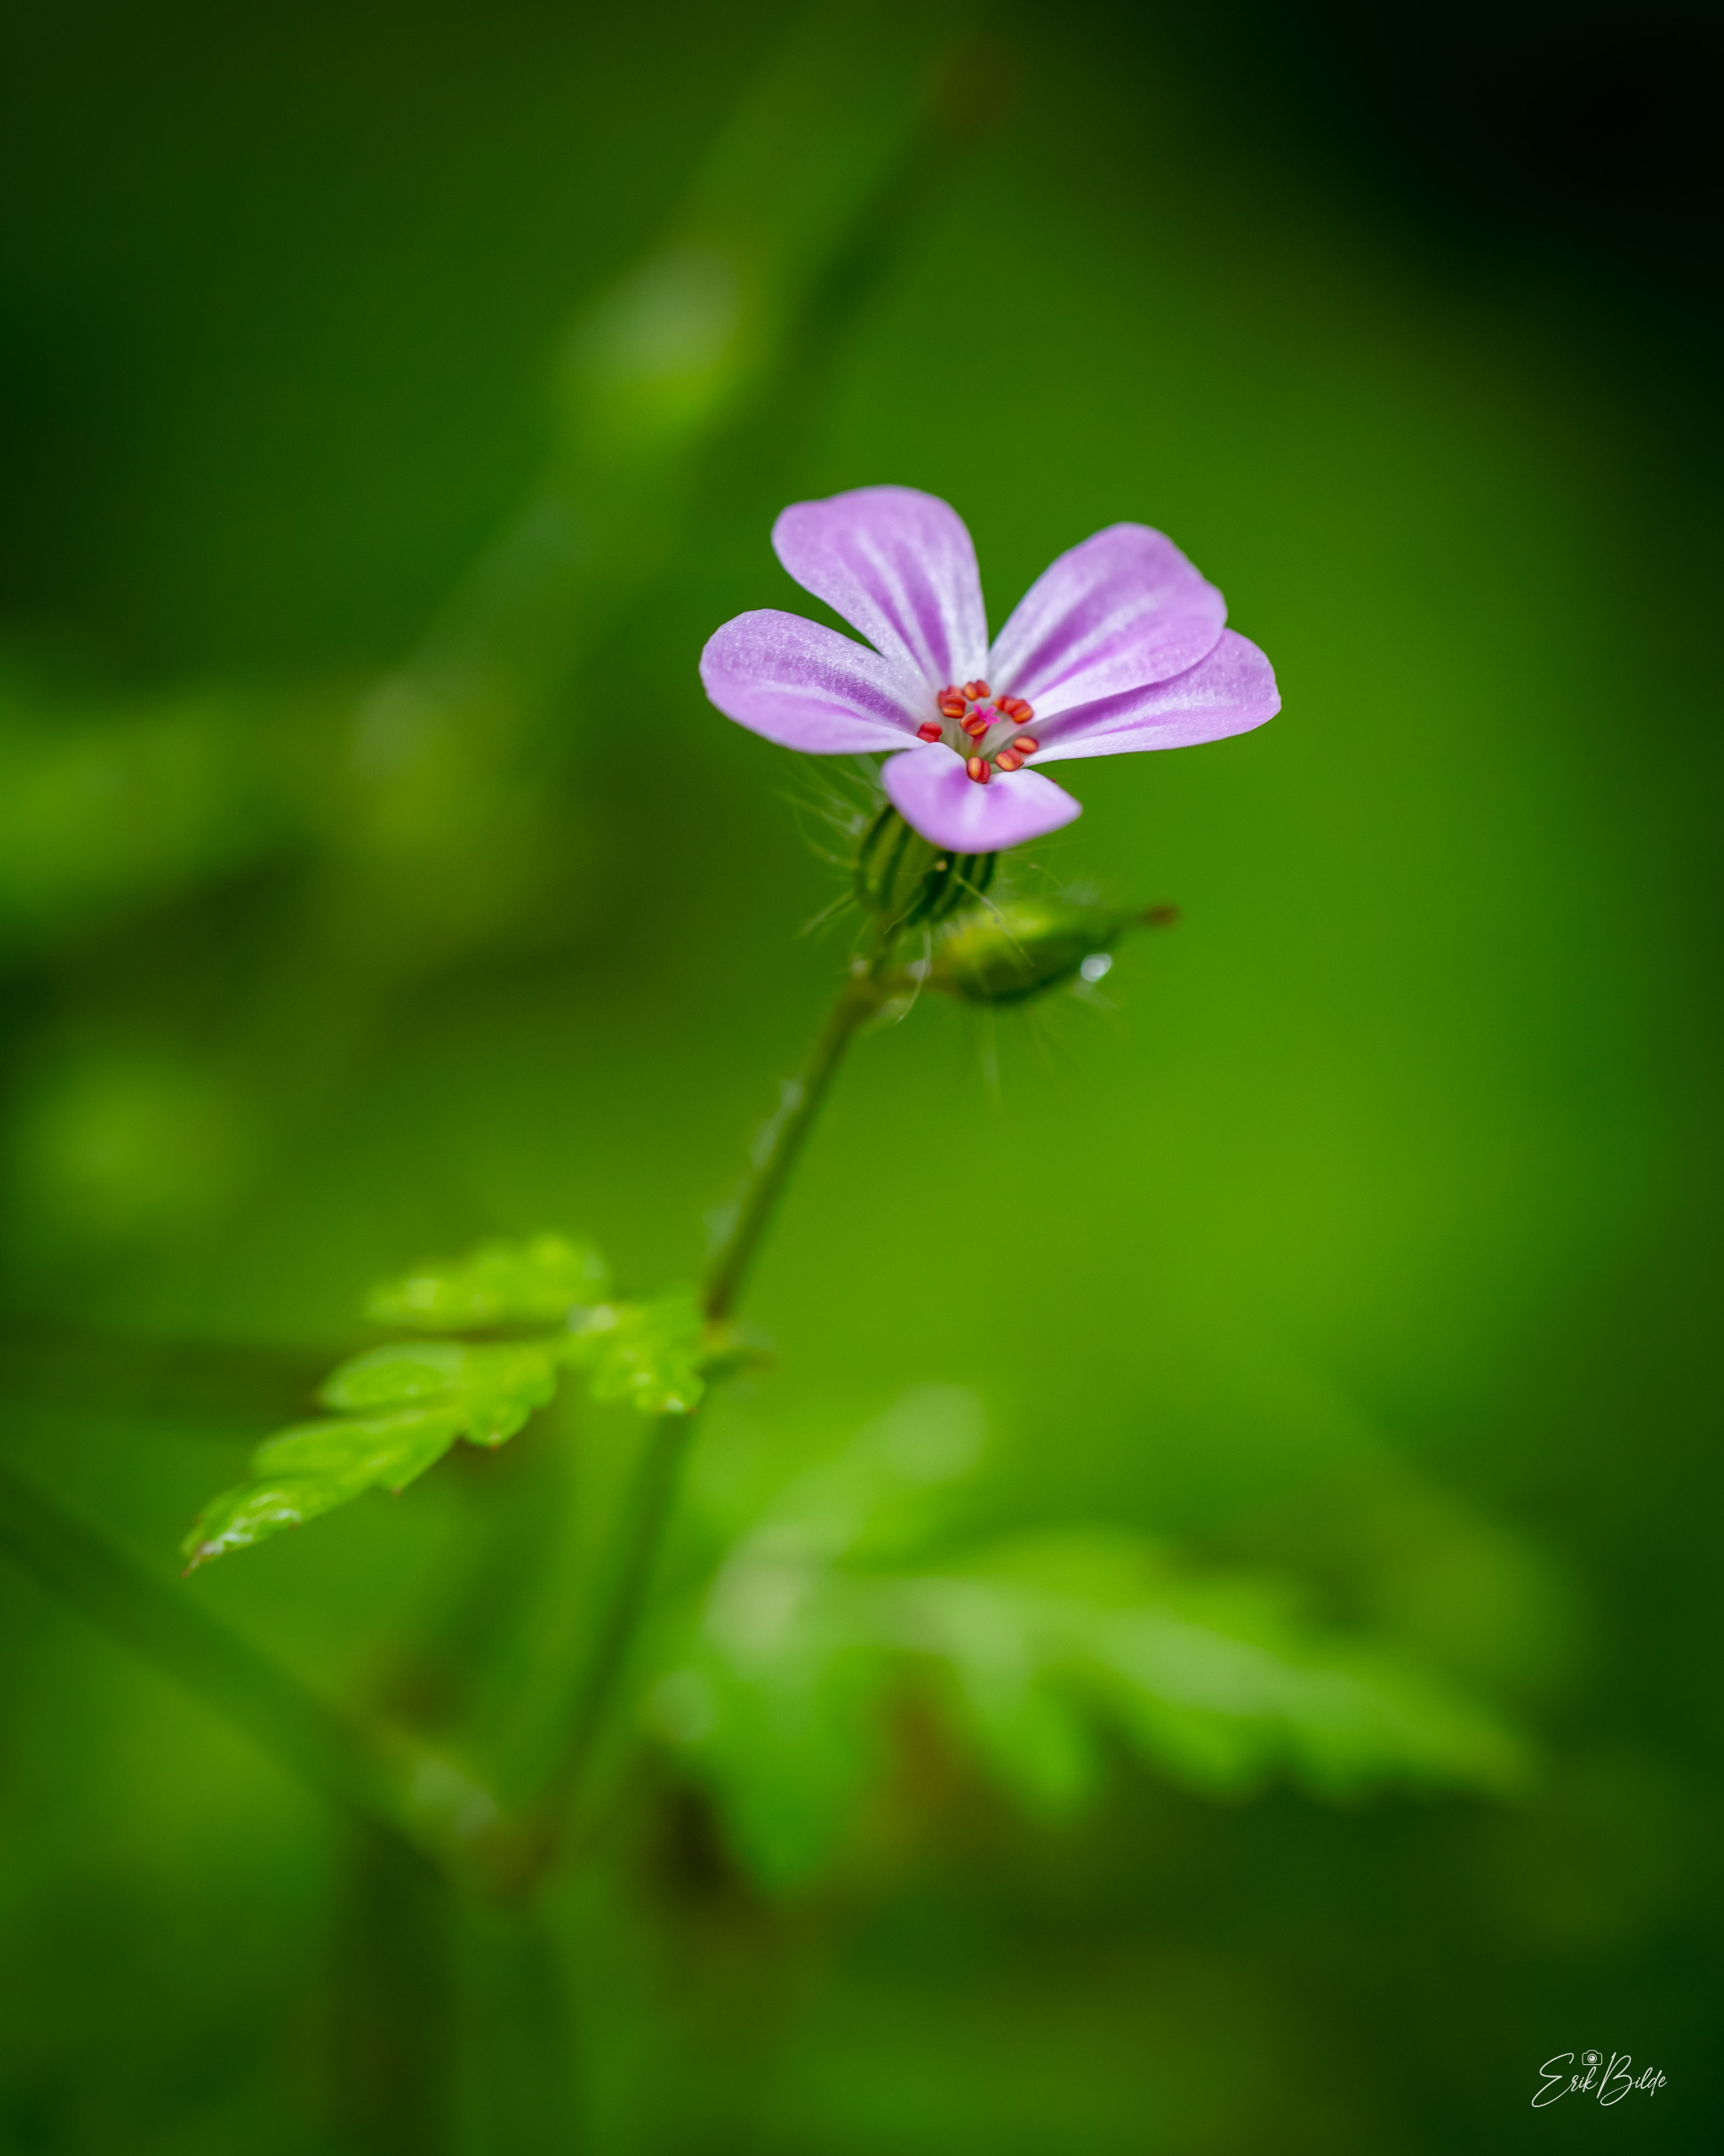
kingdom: Plantae
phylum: Tracheophyta
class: Magnoliopsida
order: Geraniales
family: Geraniaceae
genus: Geranium
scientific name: Geranium robertianum
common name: Stinkende storkenæb
